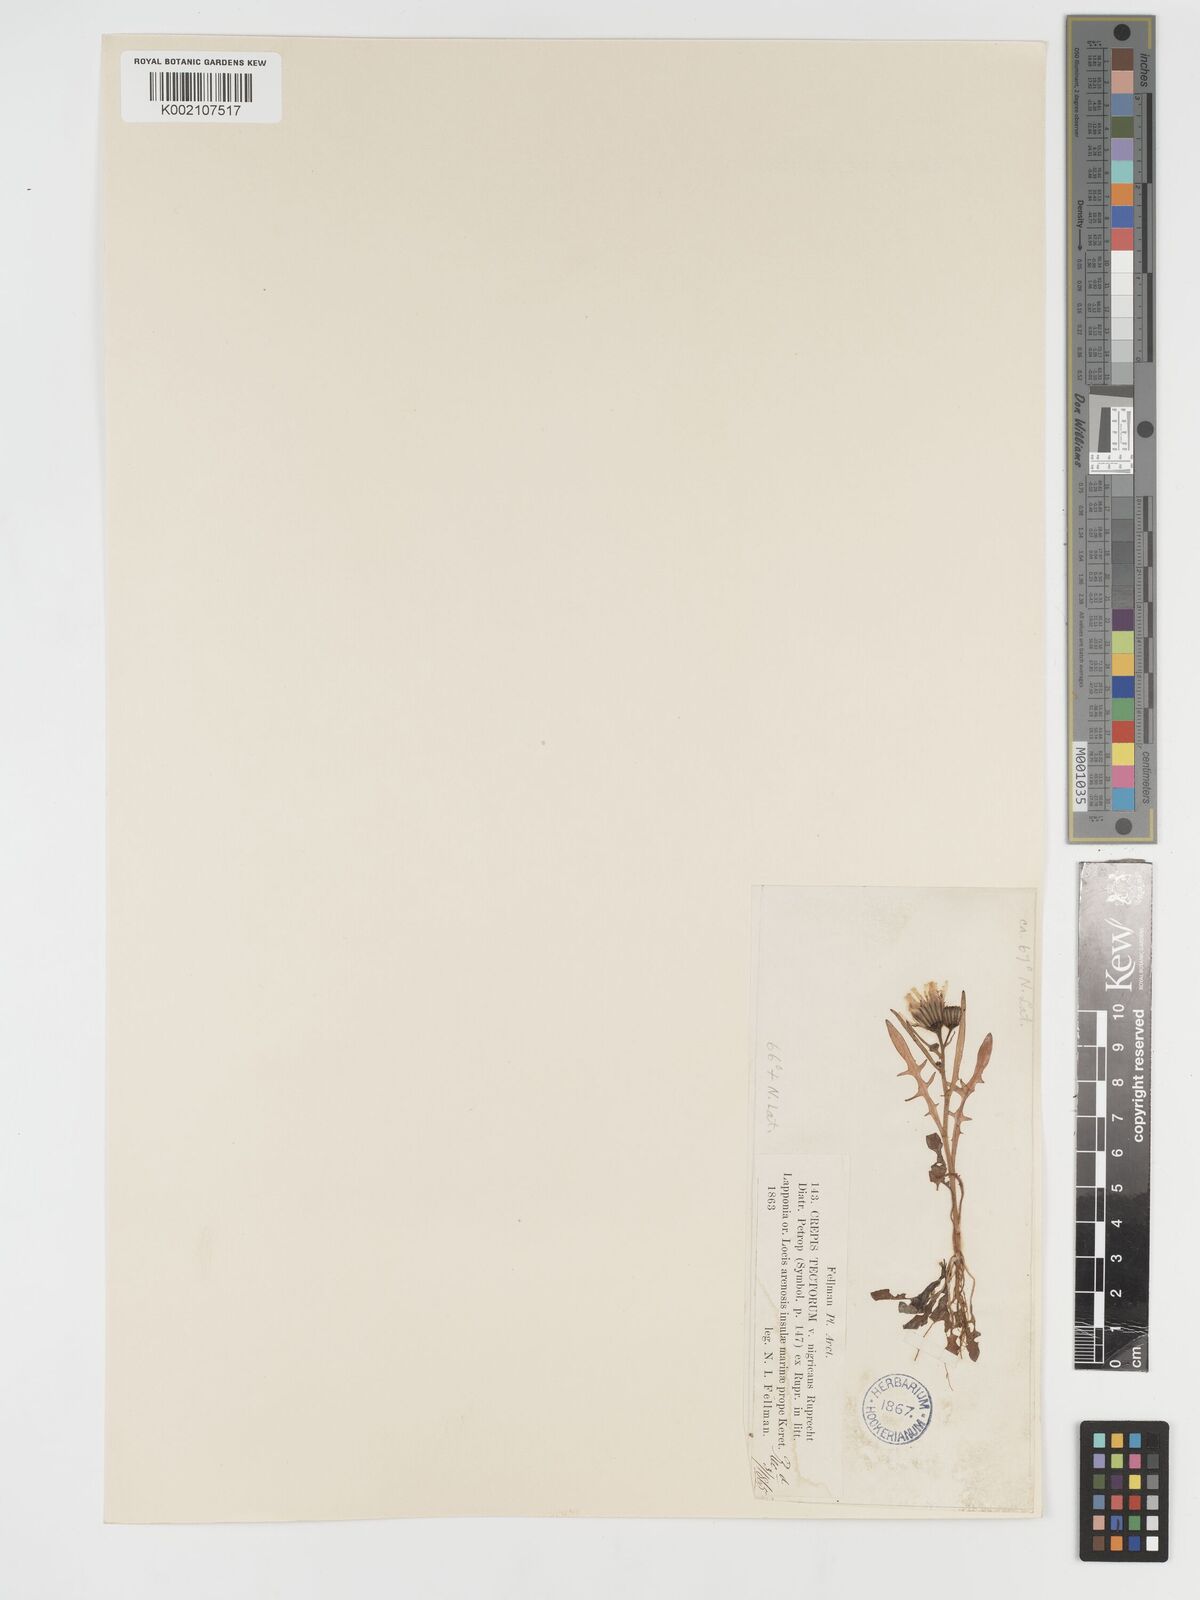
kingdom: Plantae
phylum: Tracheophyta
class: Magnoliopsida
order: Asterales
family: Asteraceae
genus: Crepis
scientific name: Crepis tectorum
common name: Narrow-leaved hawk's-beard
